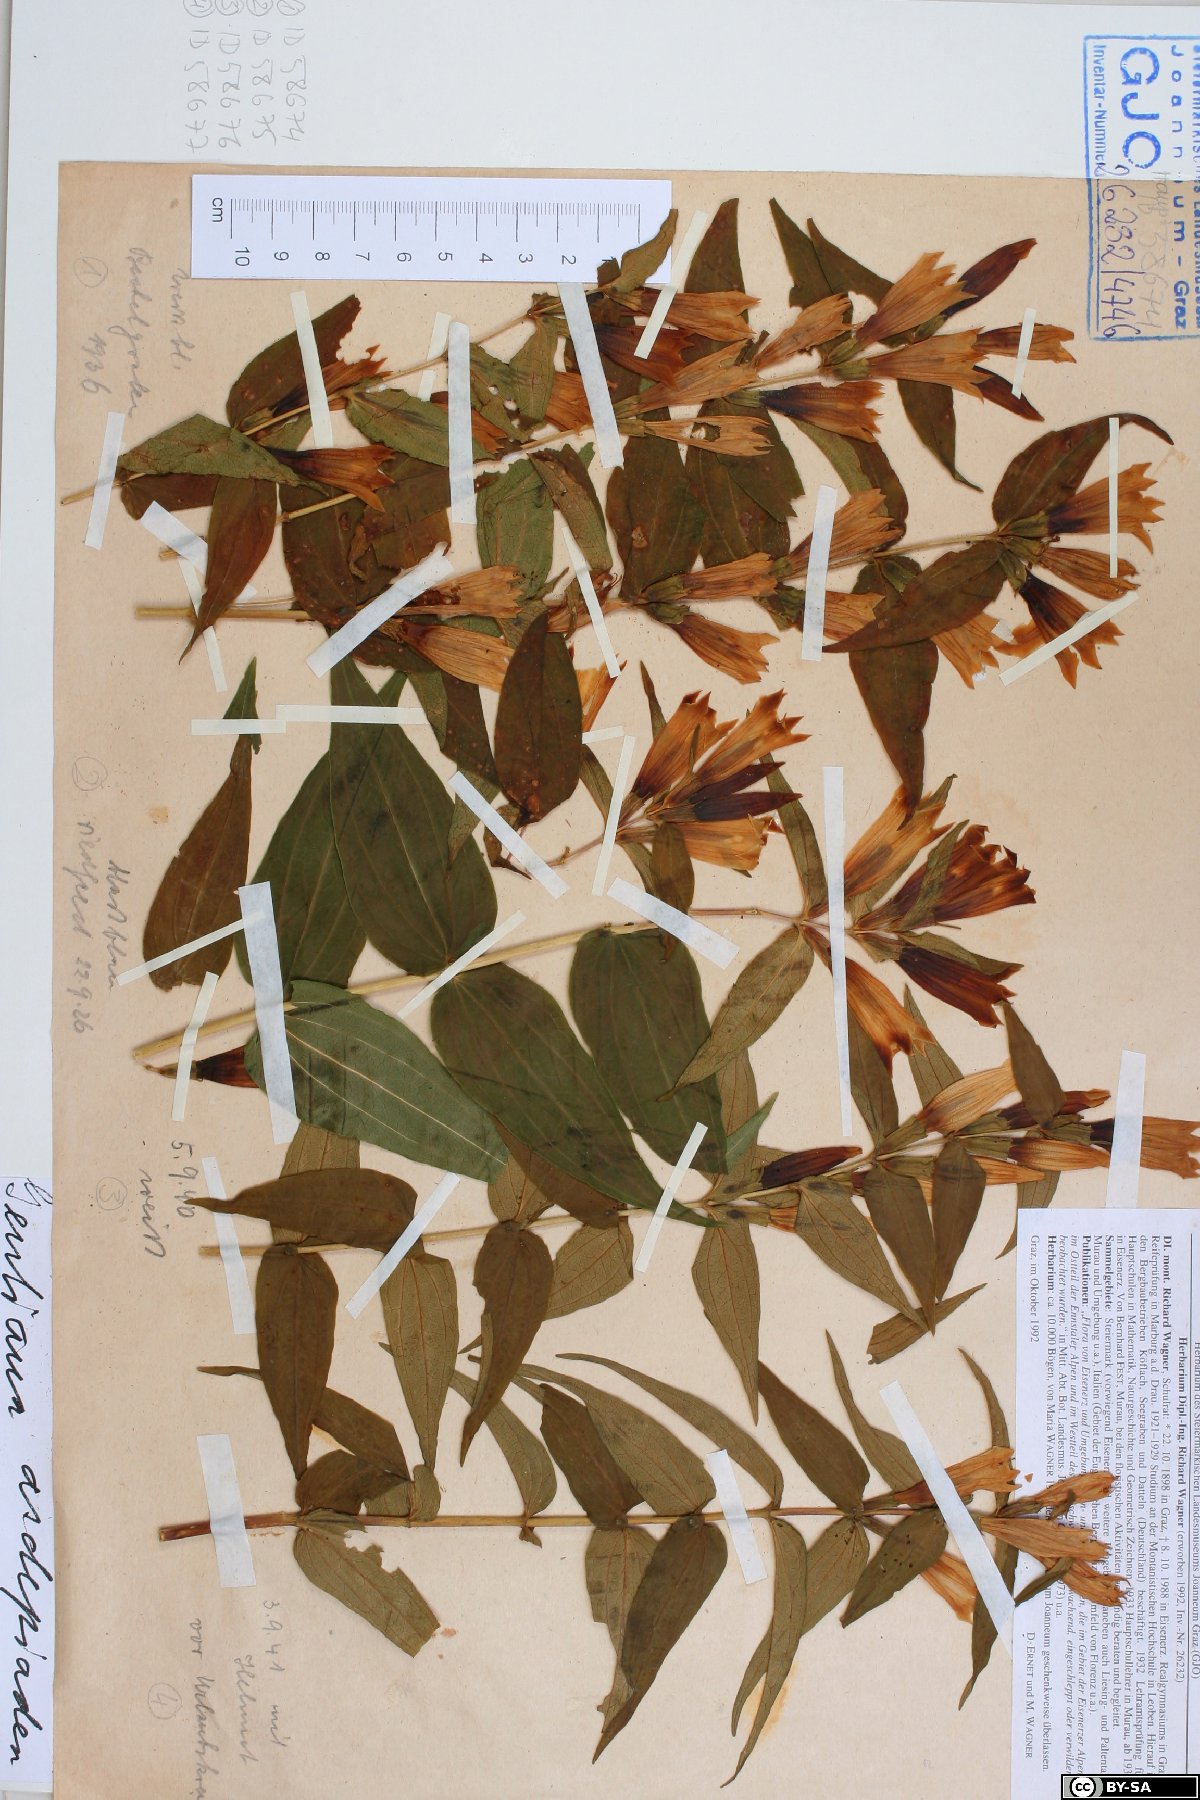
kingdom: Plantae
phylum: Tracheophyta
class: Magnoliopsida
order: Gentianales
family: Gentianaceae
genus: Gentiana
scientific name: Gentiana asclepiadea
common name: Willow gentian
